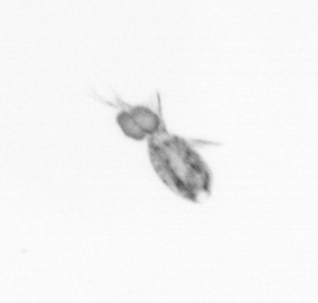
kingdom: Animalia
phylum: Arthropoda
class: Copepoda
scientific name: Copepoda
